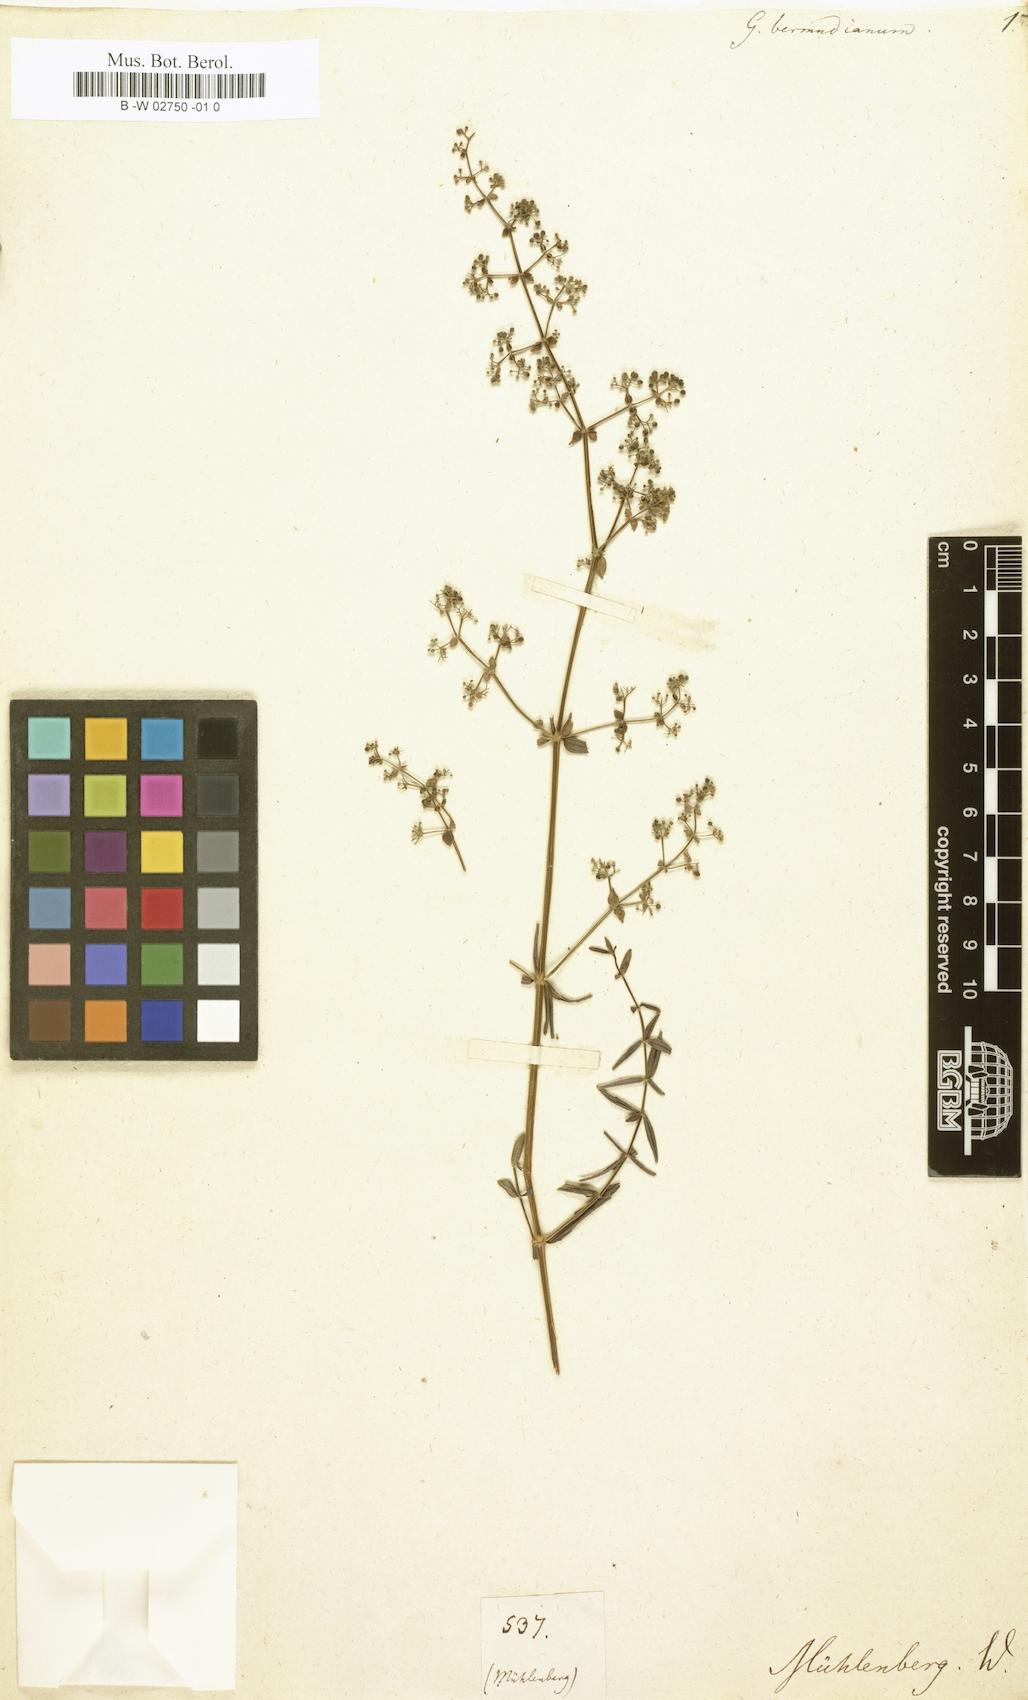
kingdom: Plantae
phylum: Tracheophyta
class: Magnoliopsida
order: Gentianales
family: Rubiaceae
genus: Galium
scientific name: Galium lucidum
